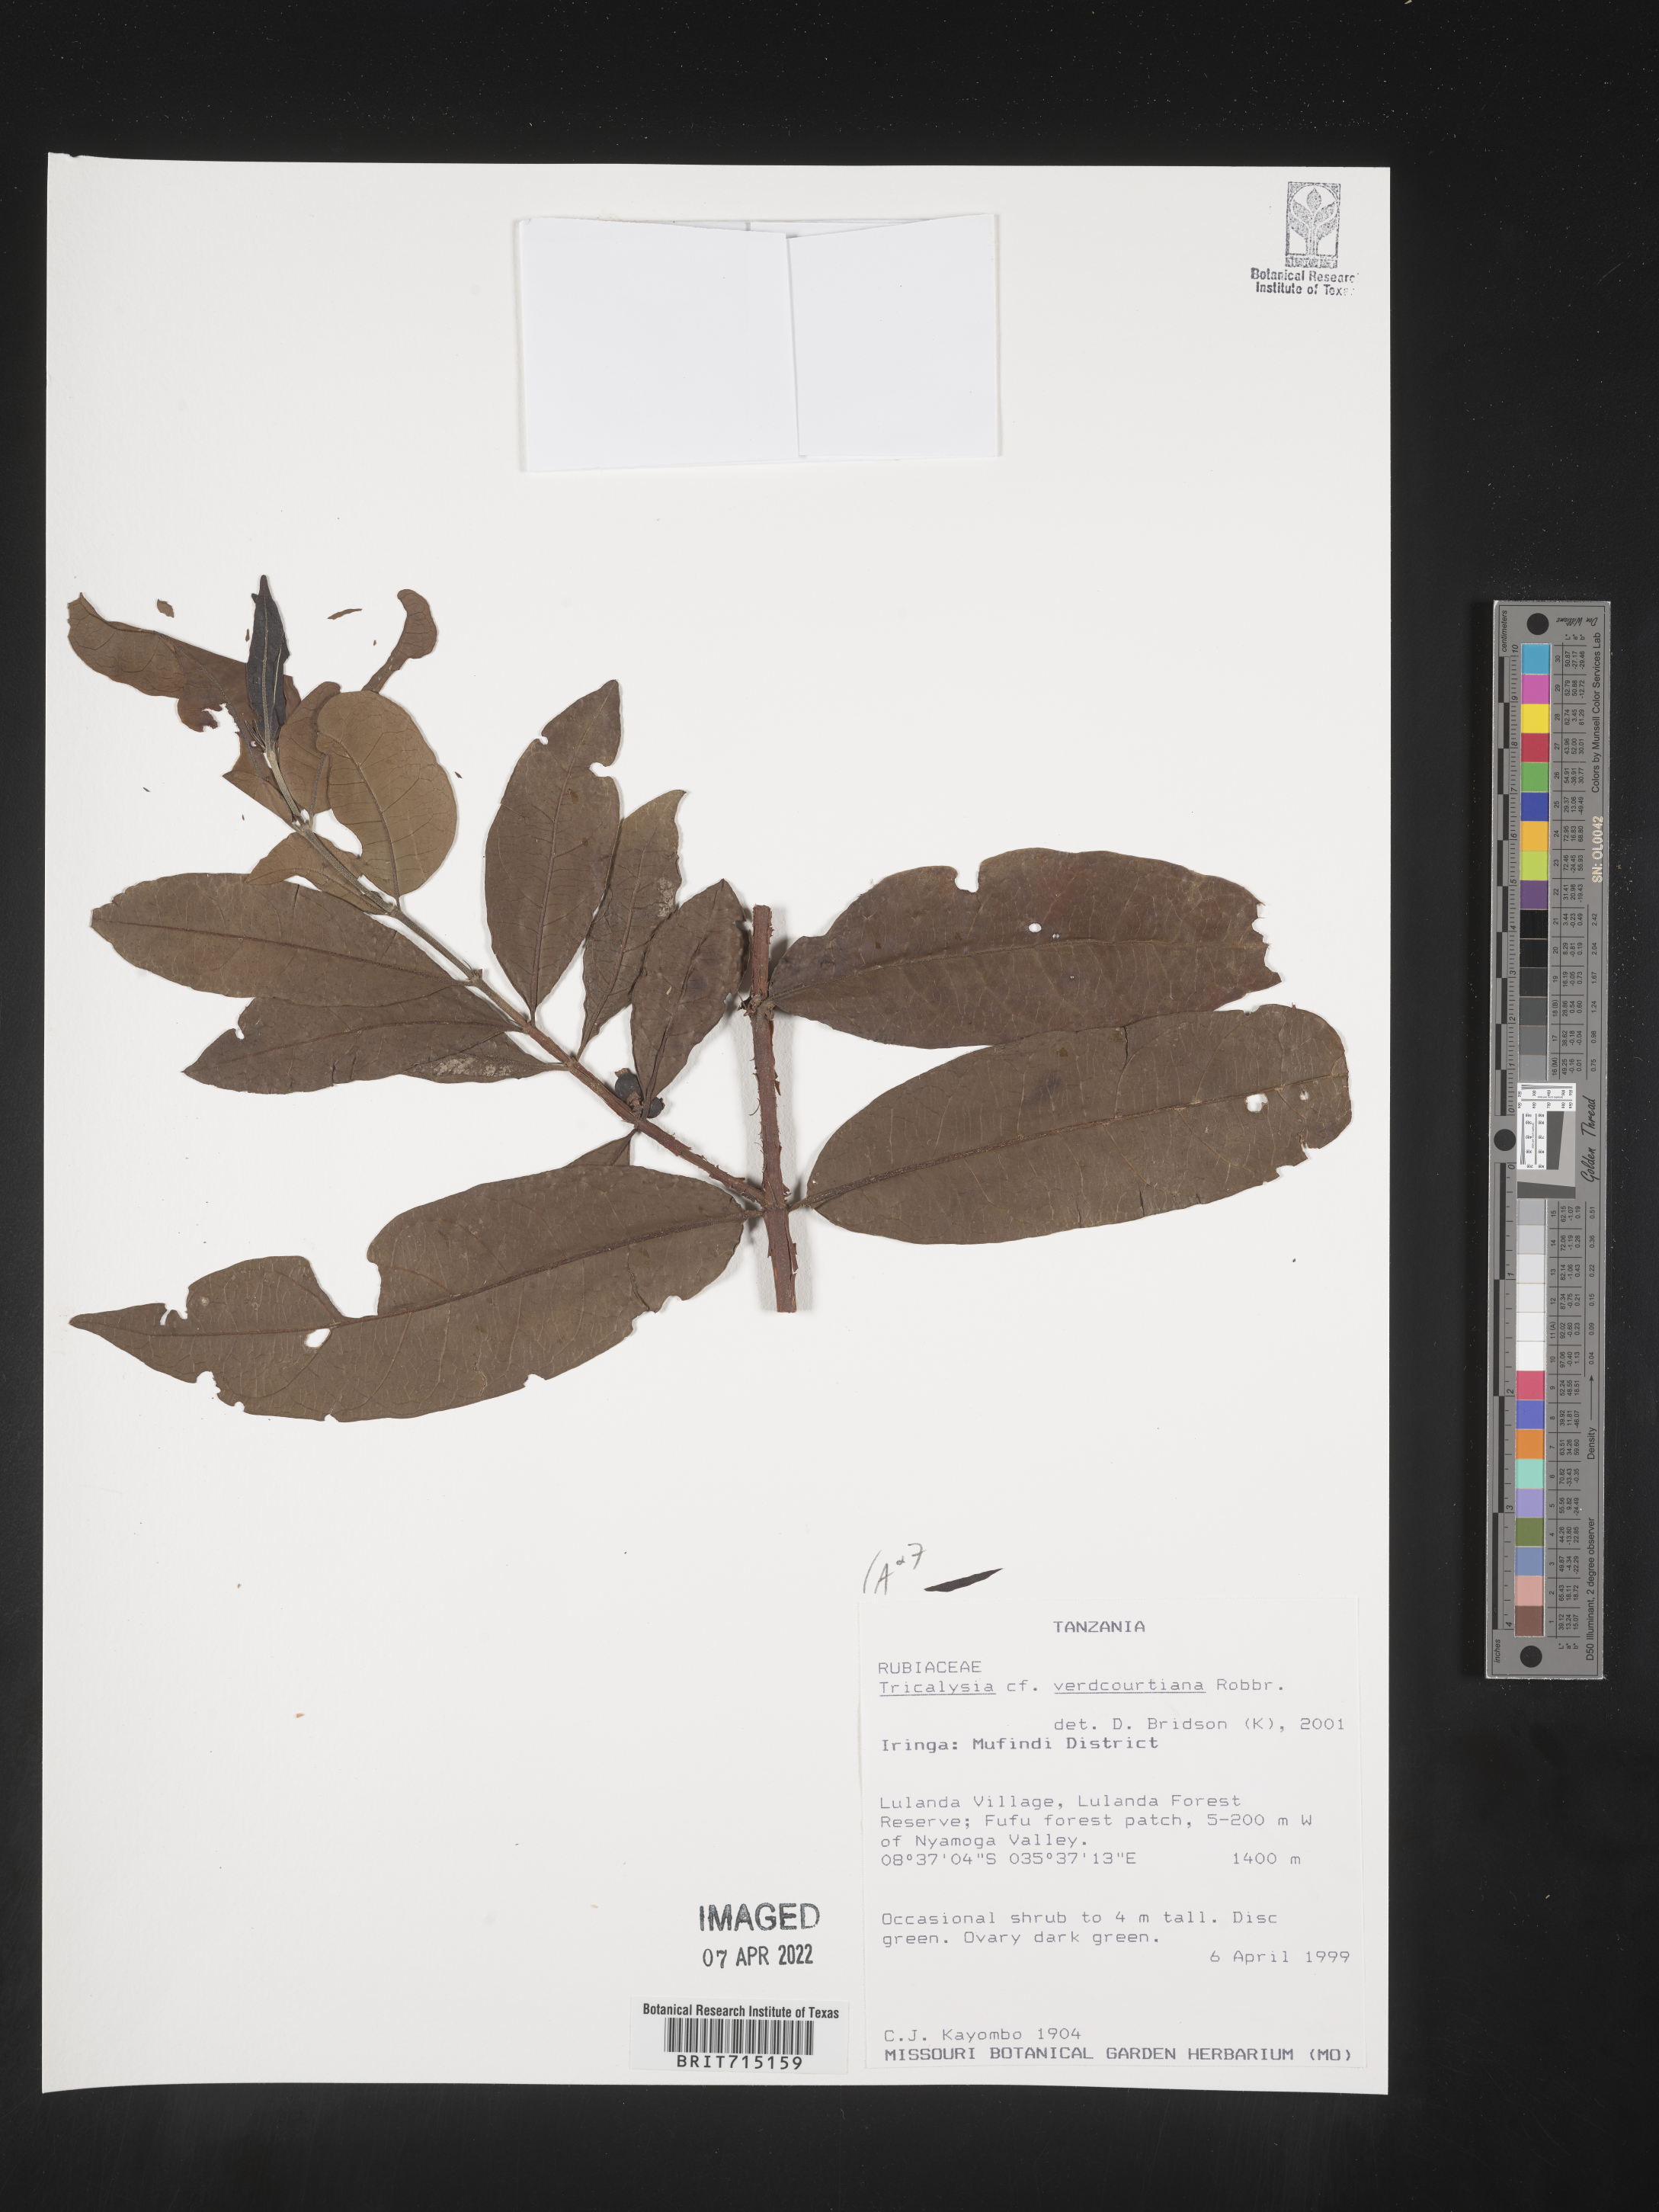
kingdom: Plantae
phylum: Tracheophyta
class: Magnoliopsida
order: Gentianales
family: Rubiaceae
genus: Tricalysia
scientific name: Tricalysia
